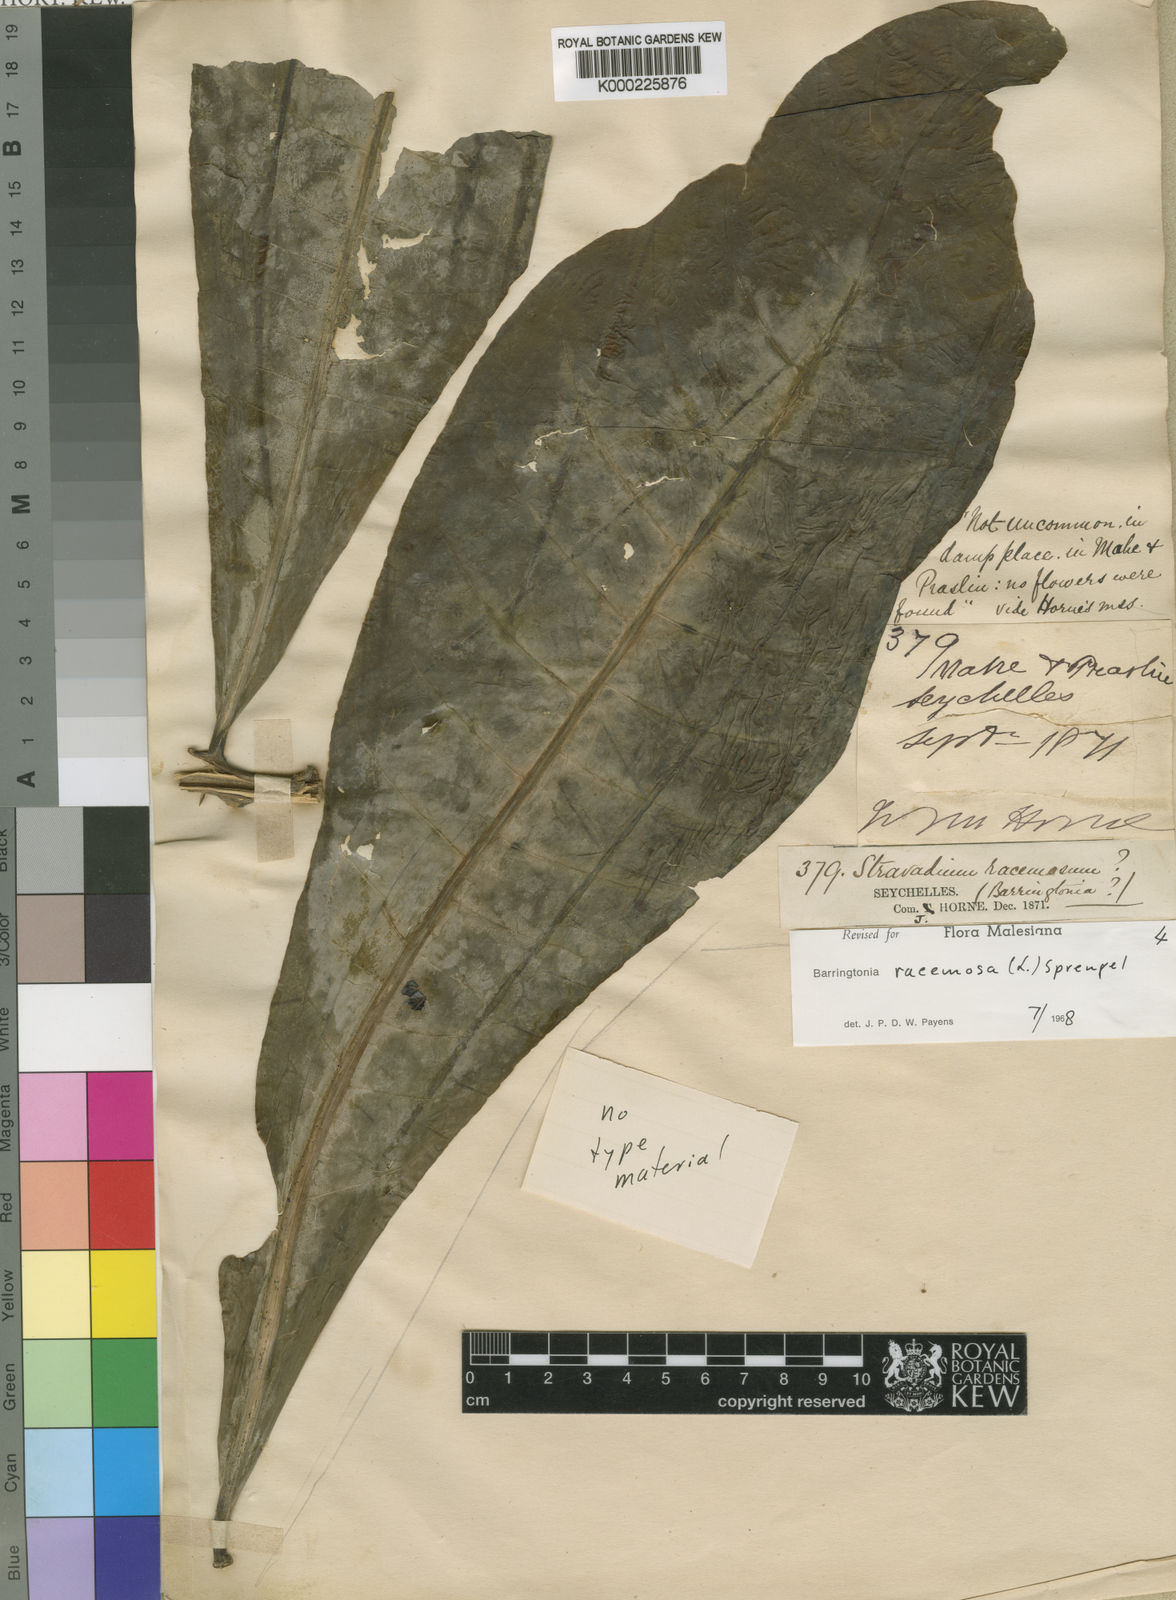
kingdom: Plantae
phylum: Tracheophyta
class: Magnoliopsida
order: Ericales
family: Lecythidaceae
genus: Barringtonia
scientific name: Barringtonia racemosa
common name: Brackwater mangrove
